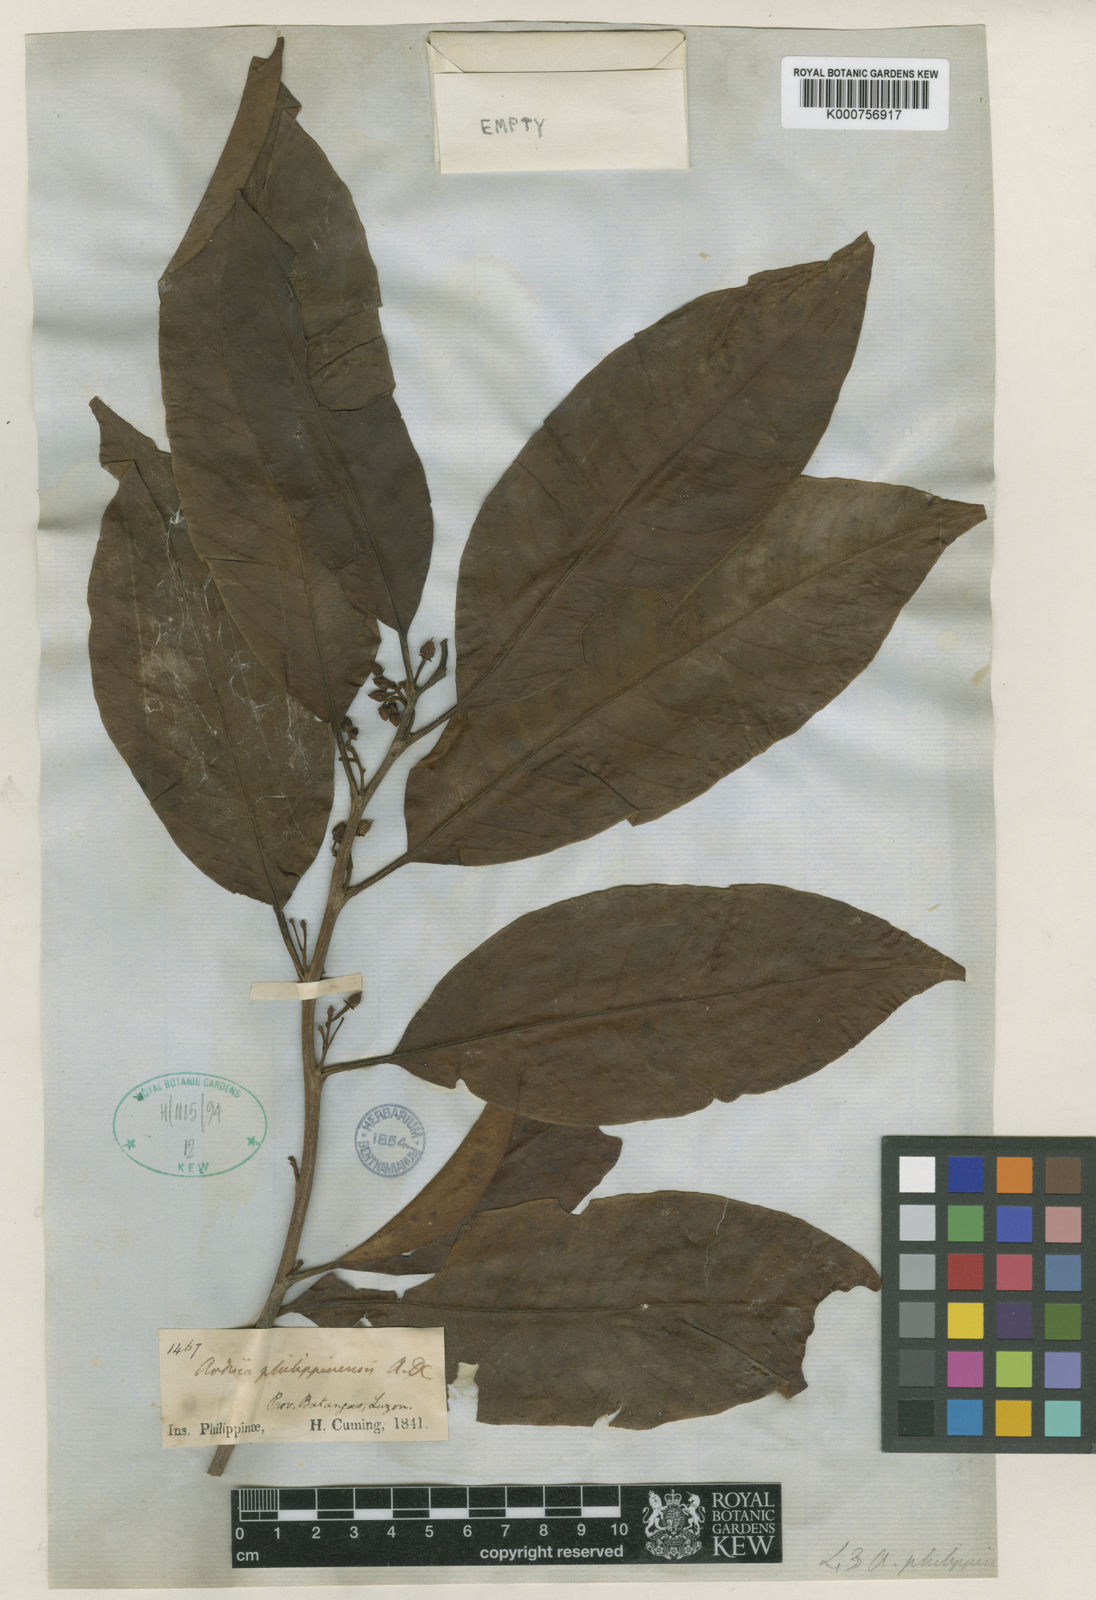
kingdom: Plantae
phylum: Tracheophyta
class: Magnoliopsida
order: Ericales
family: Primulaceae
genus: Ardisia
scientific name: Ardisia tomentosa
